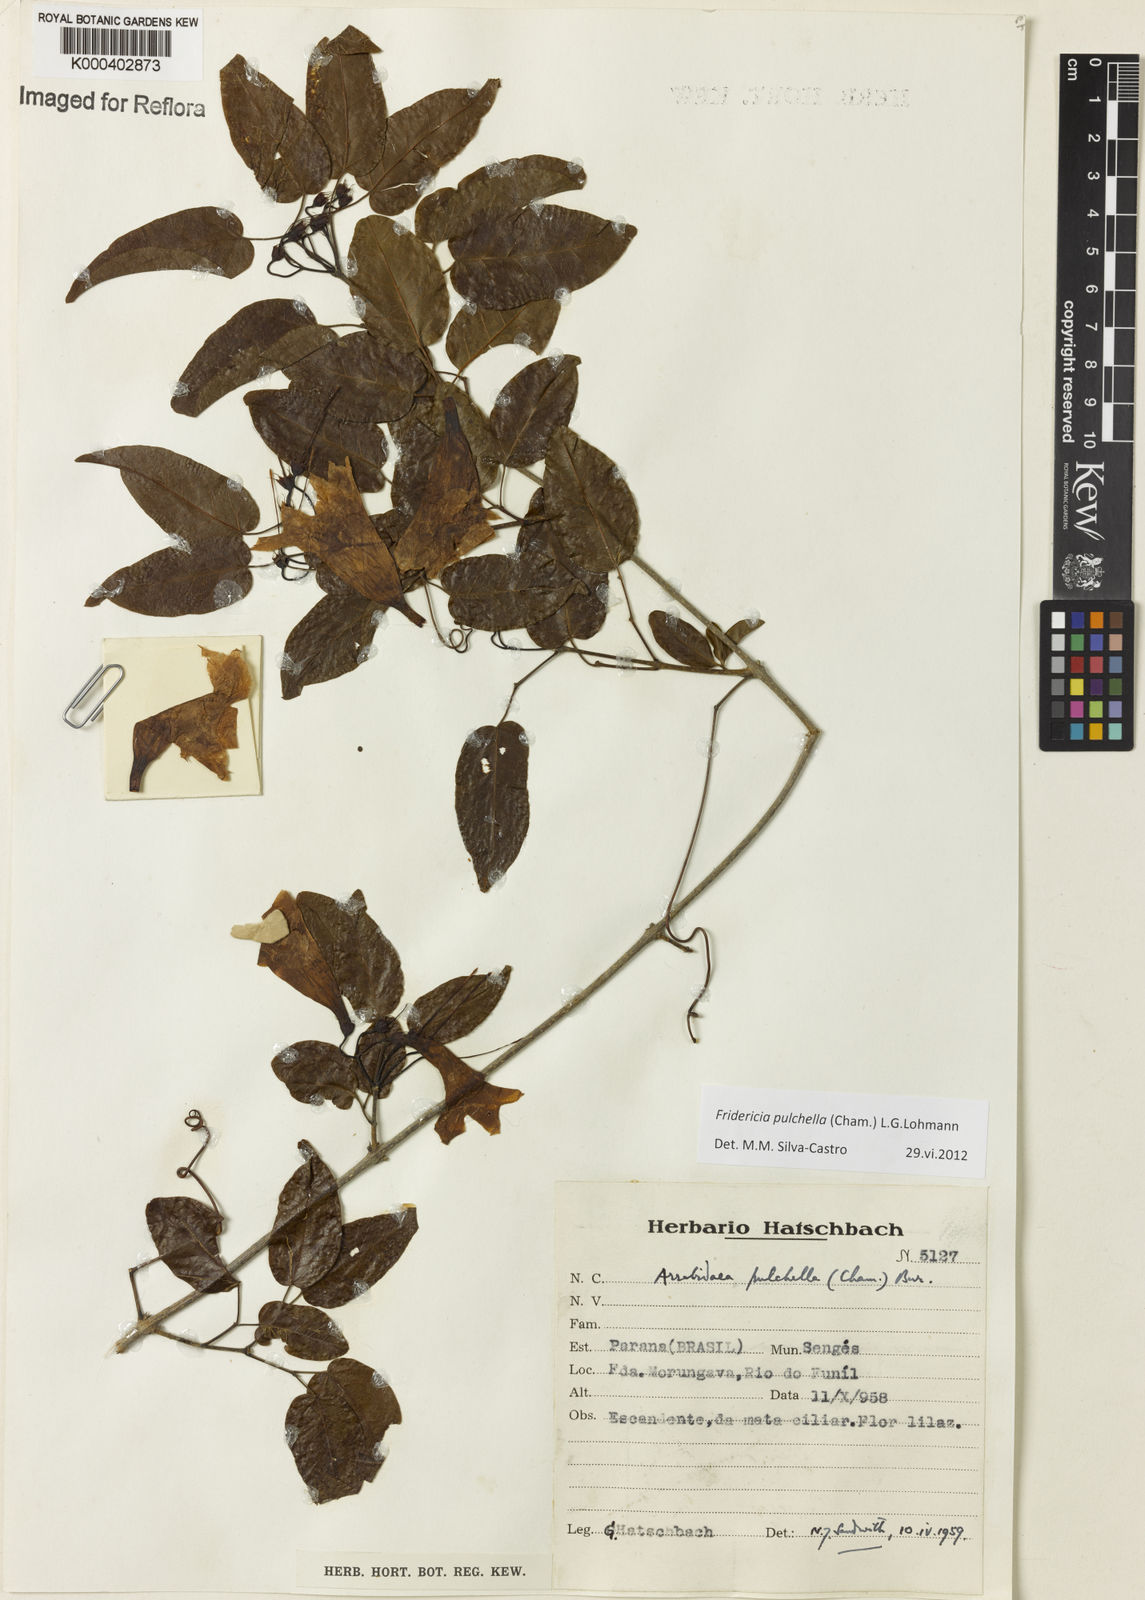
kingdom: Plantae
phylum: Tracheophyta
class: Magnoliopsida
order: Lamiales
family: Bignoniaceae
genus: Fridericia
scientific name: Fridericia
